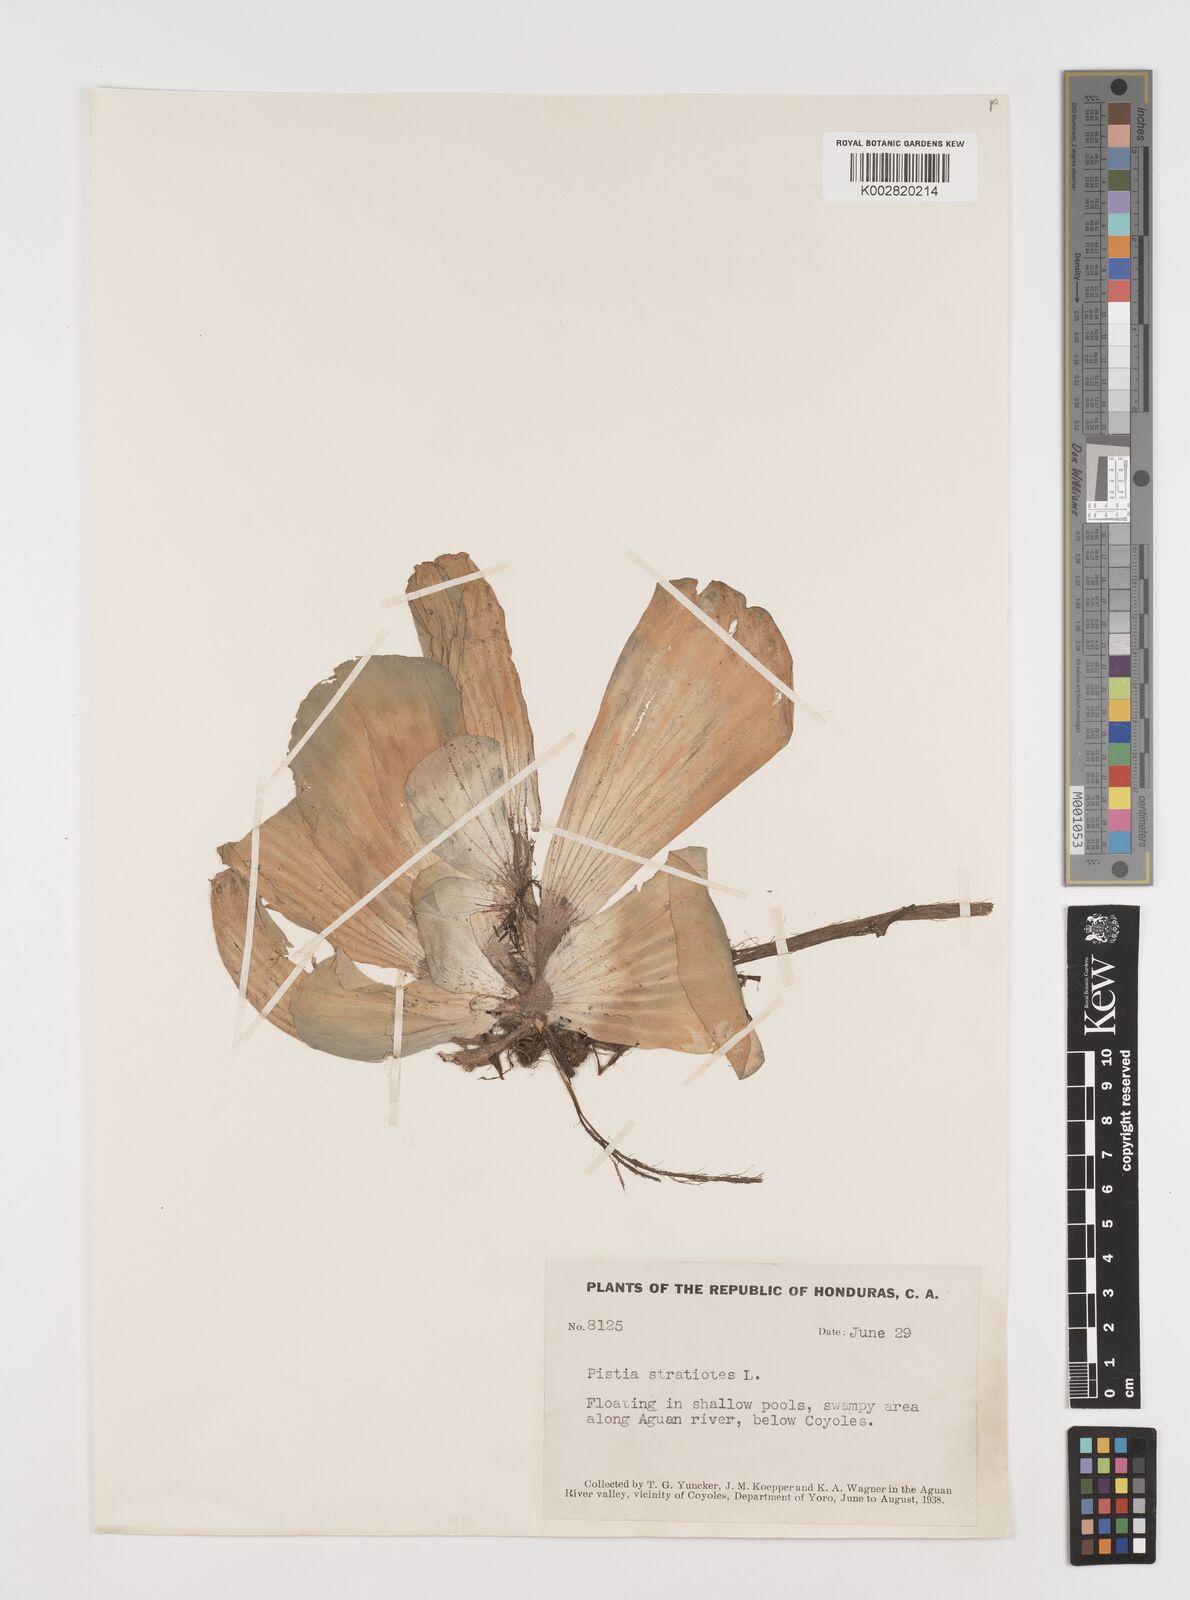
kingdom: Plantae
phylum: Tracheophyta
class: Liliopsida
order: Alismatales
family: Araceae
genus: Pistia
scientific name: Pistia stratiotes
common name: Water lettuce
